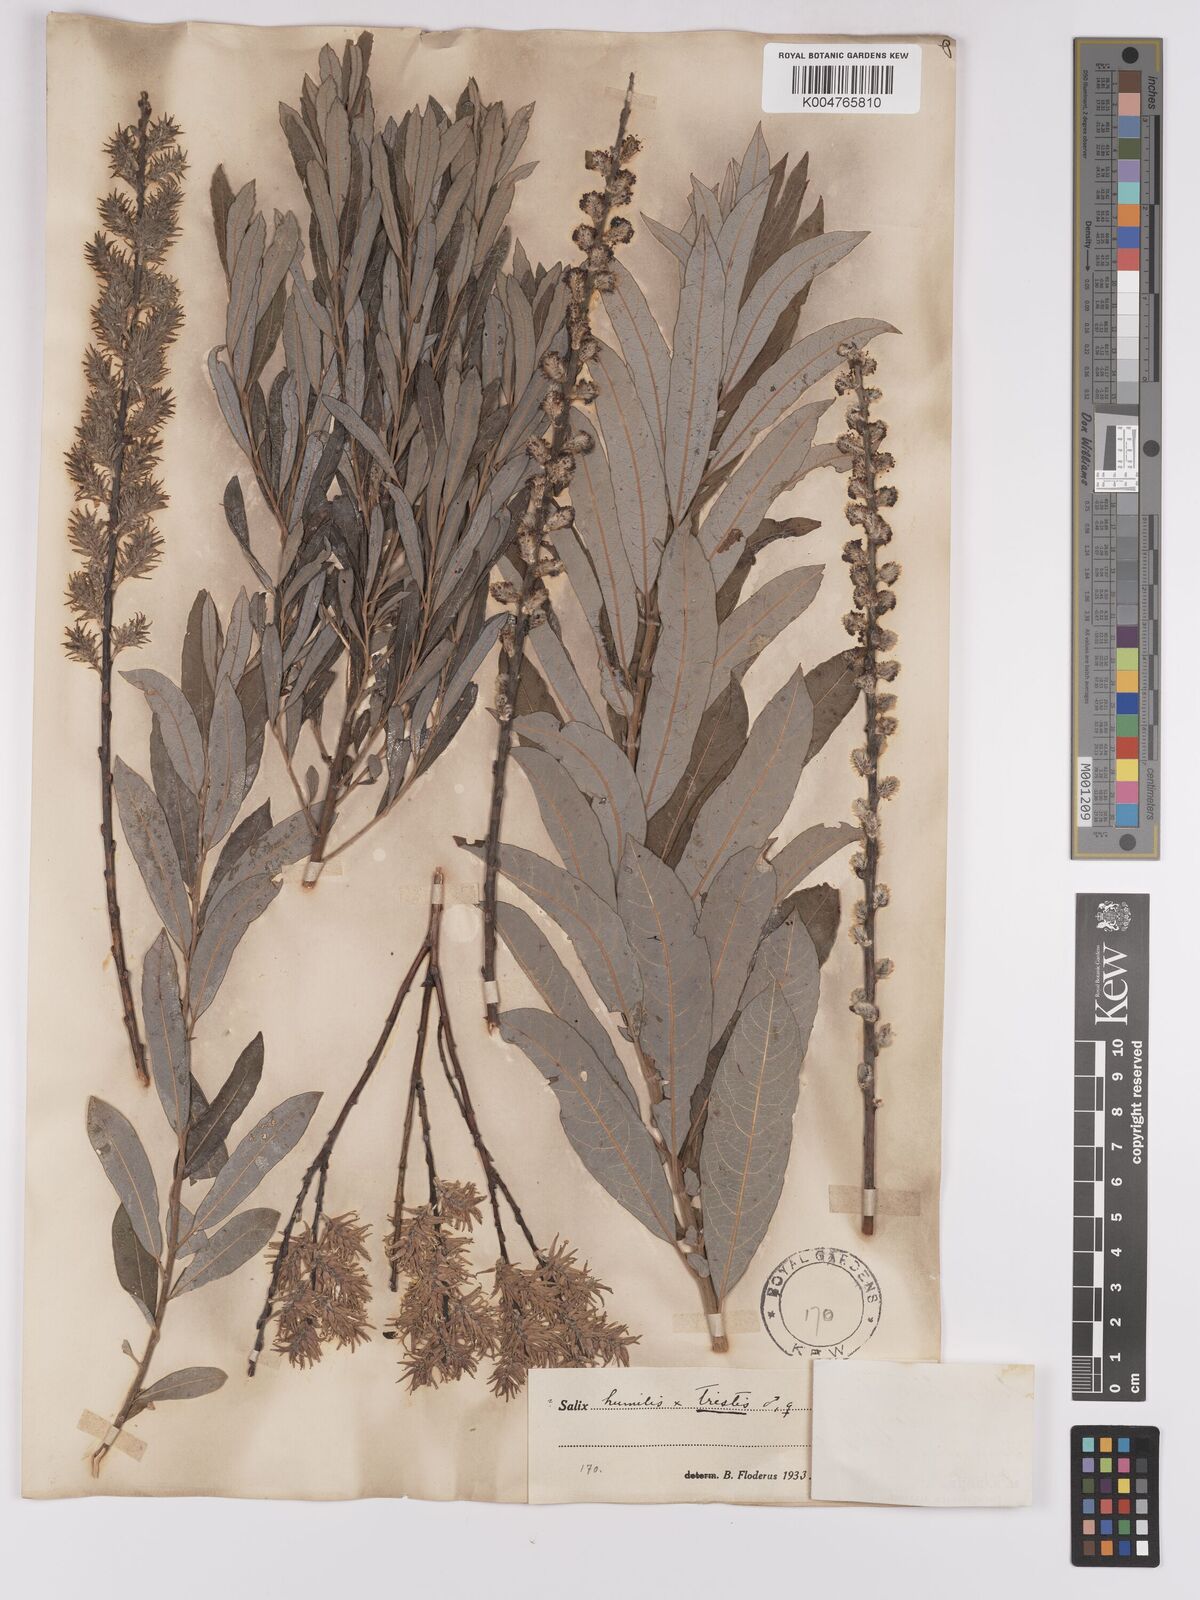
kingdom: Plantae
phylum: Tracheophyta
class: Magnoliopsida
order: Malpighiales
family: Salicaceae
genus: Salix
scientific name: Salix
